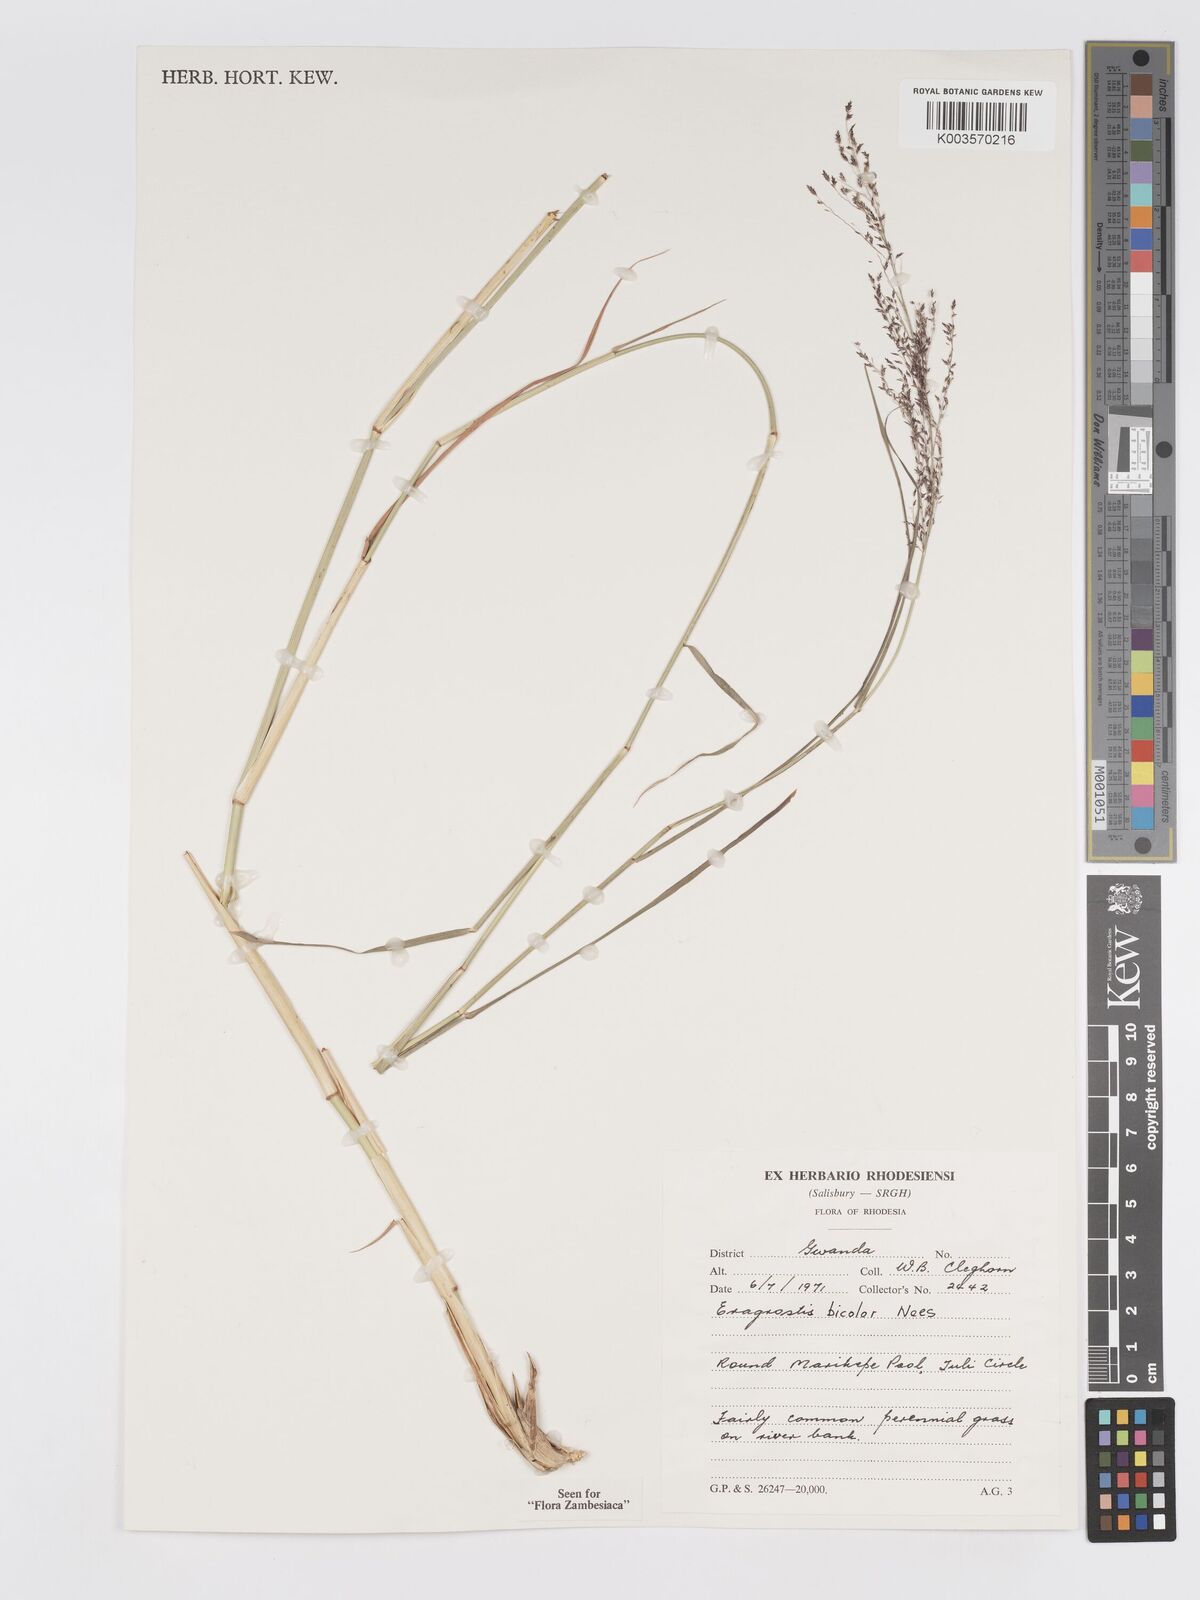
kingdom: Plantae
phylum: Tracheophyta
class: Liliopsida
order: Poales
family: Poaceae
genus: Eragrostis
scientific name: Eragrostis bicolor
